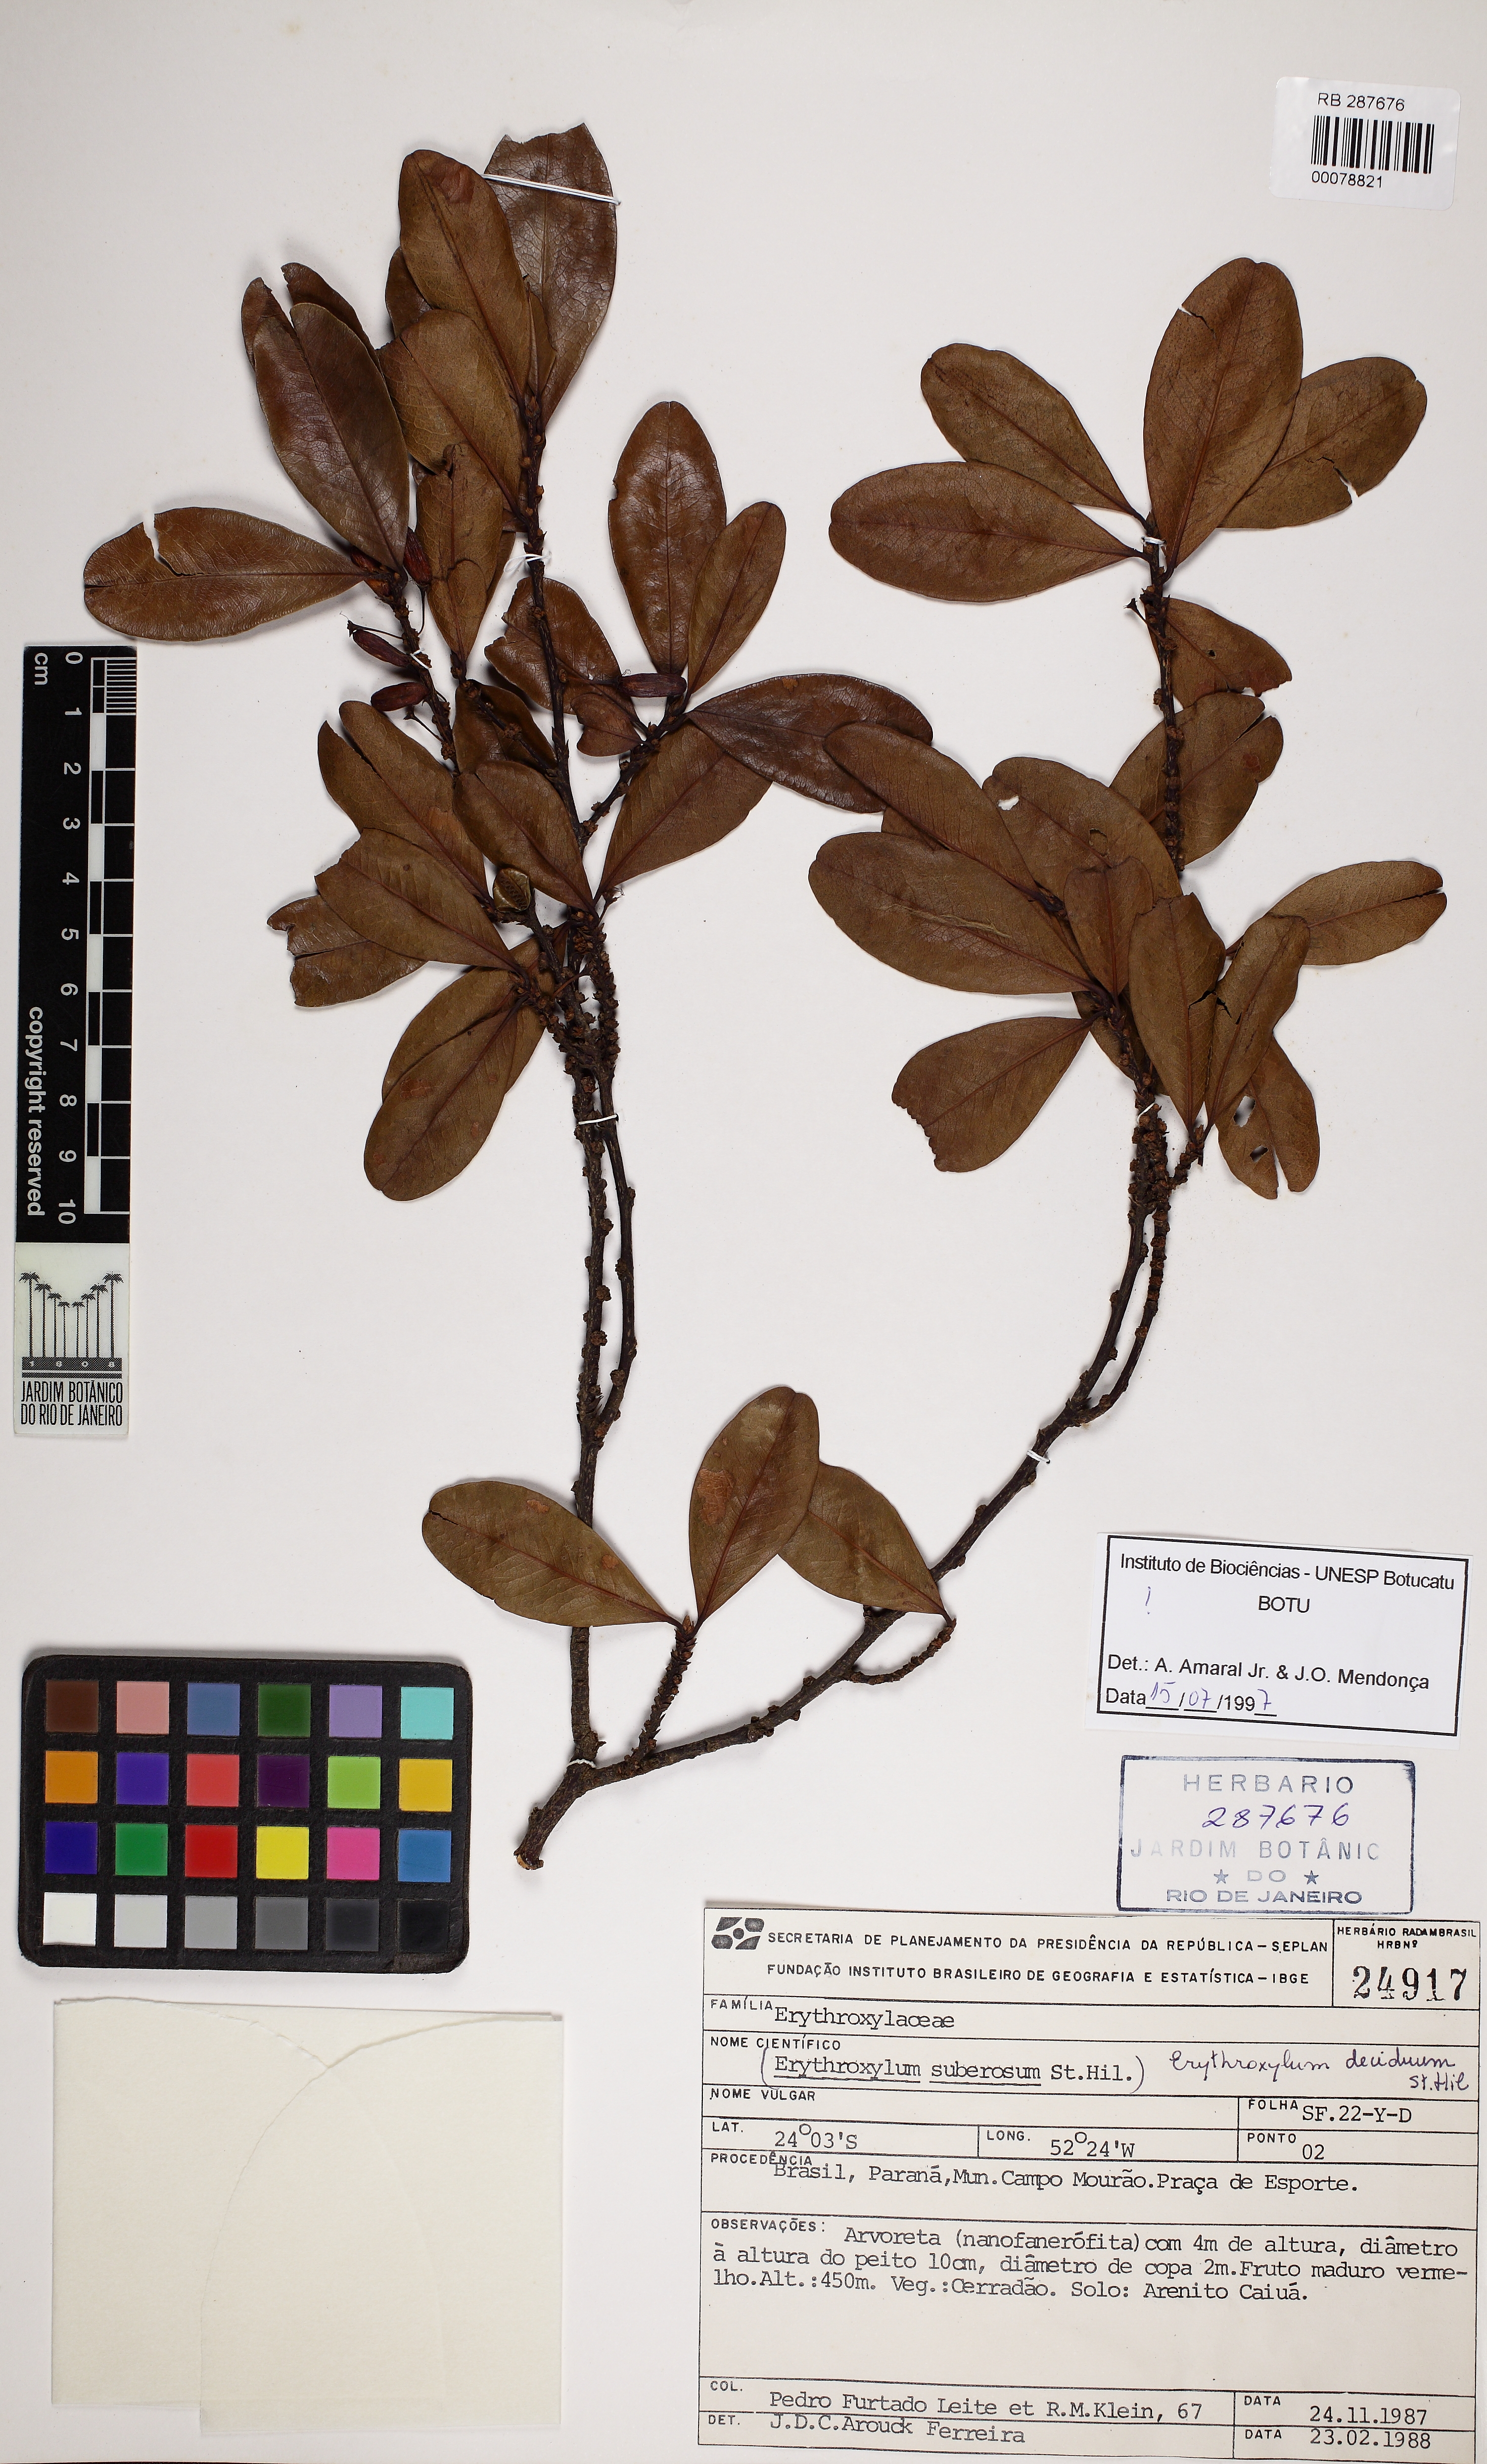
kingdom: Plantae
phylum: Tracheophyta
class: Magnoliopsida
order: Malpighiales
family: Erythroxylaceae
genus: Erythroxylum
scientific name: Erythroxylum deciduum
